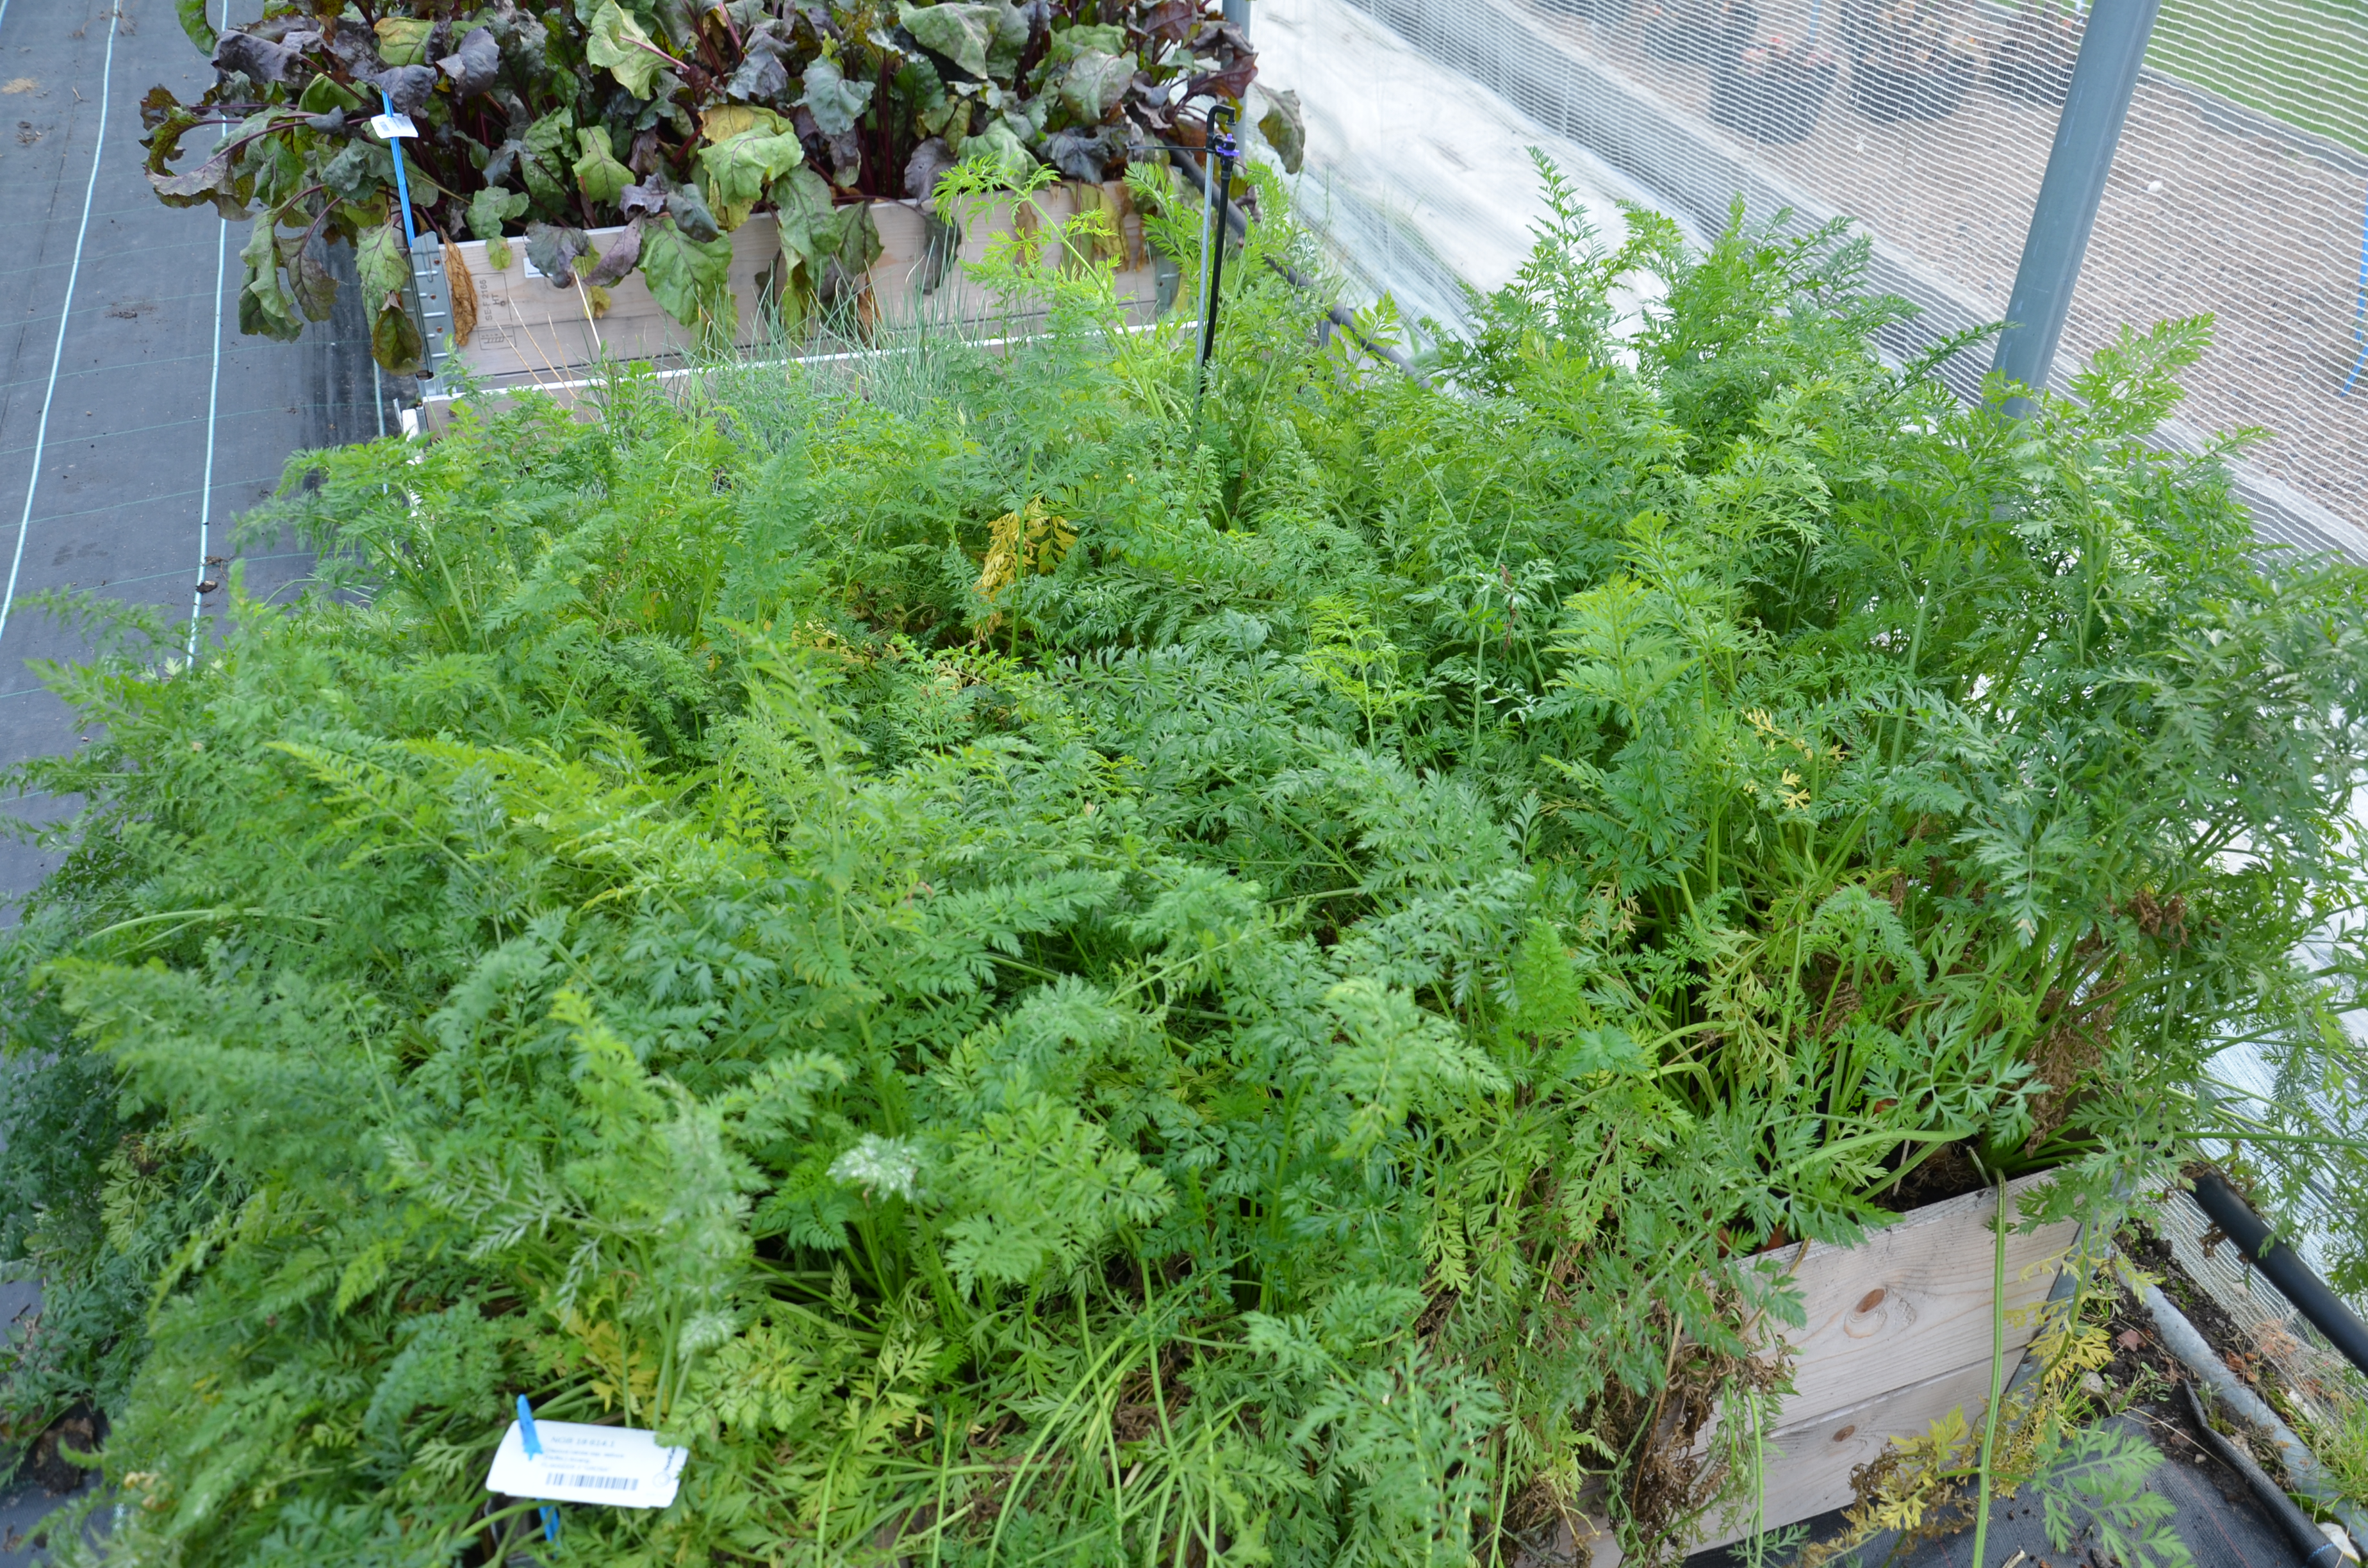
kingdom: Plantae
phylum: Tracheophyta
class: Magnoliopsida
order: Apiales
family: Apiaceae
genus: Daucus
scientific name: Daucus carota
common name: Wild carrot
